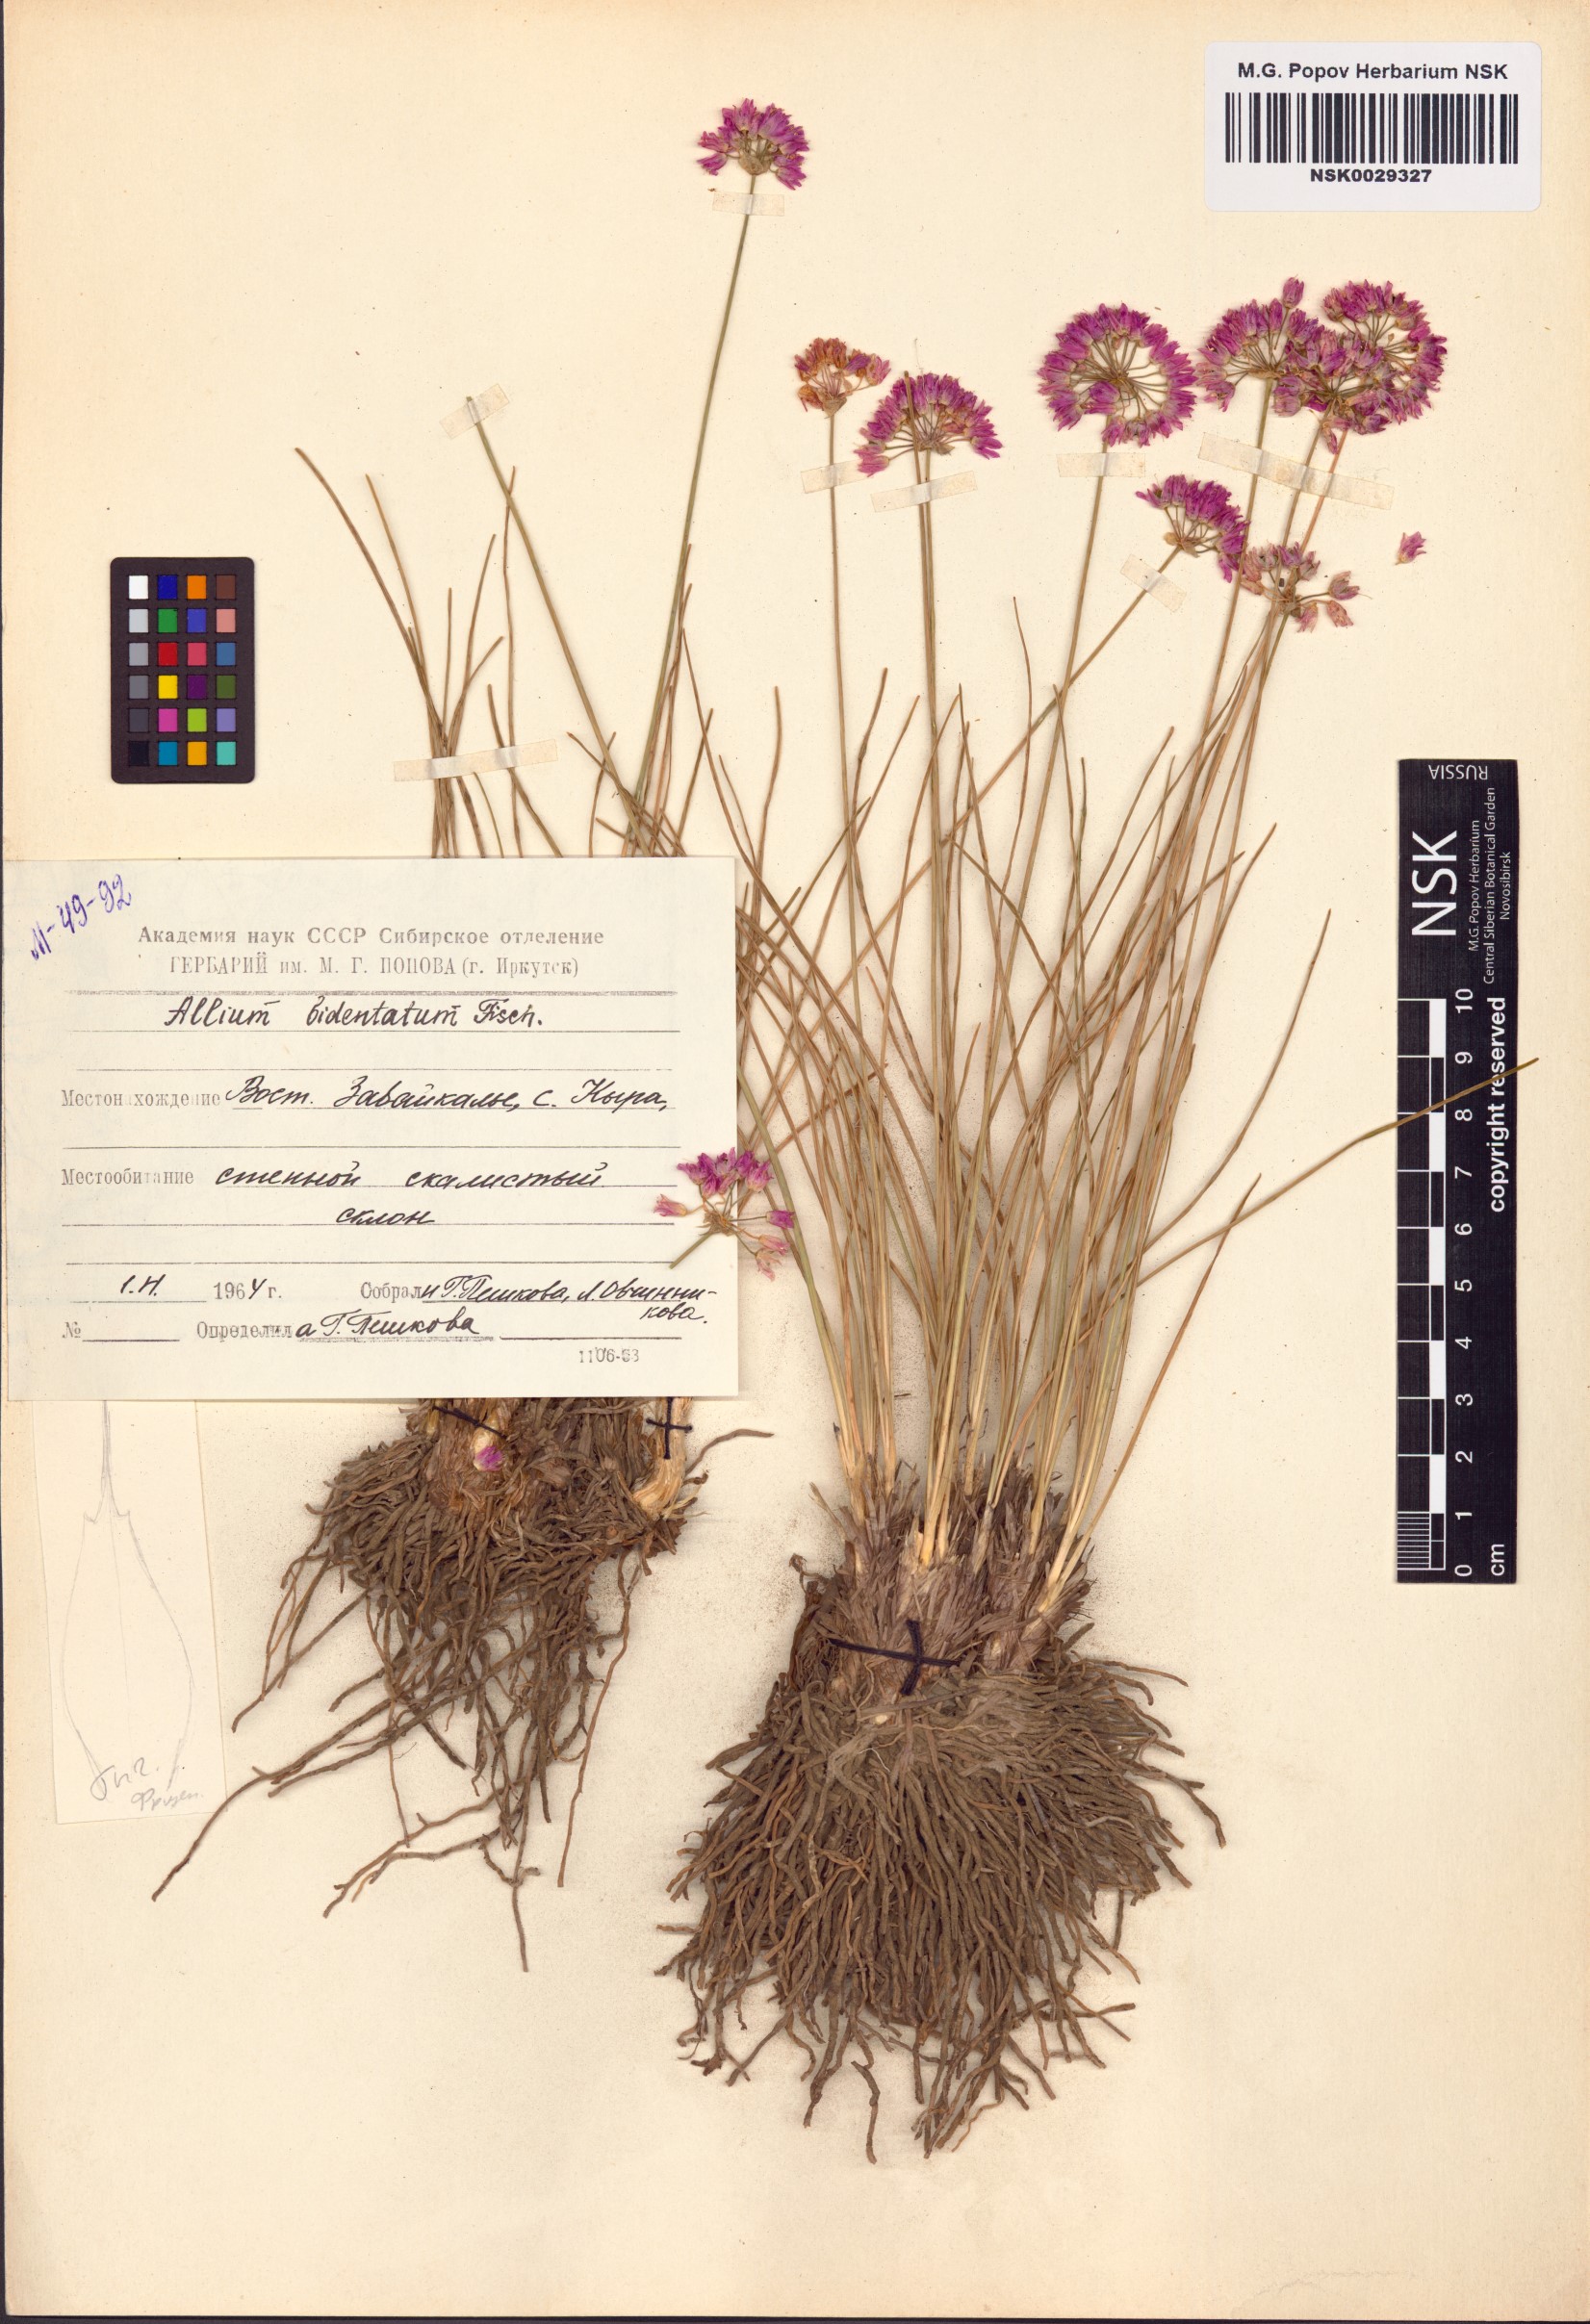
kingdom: Plantae
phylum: Tracheophyta
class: Liliopsida
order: Asparagales
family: Amaryllidaceae
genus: Allium
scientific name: Allium bidentatum
